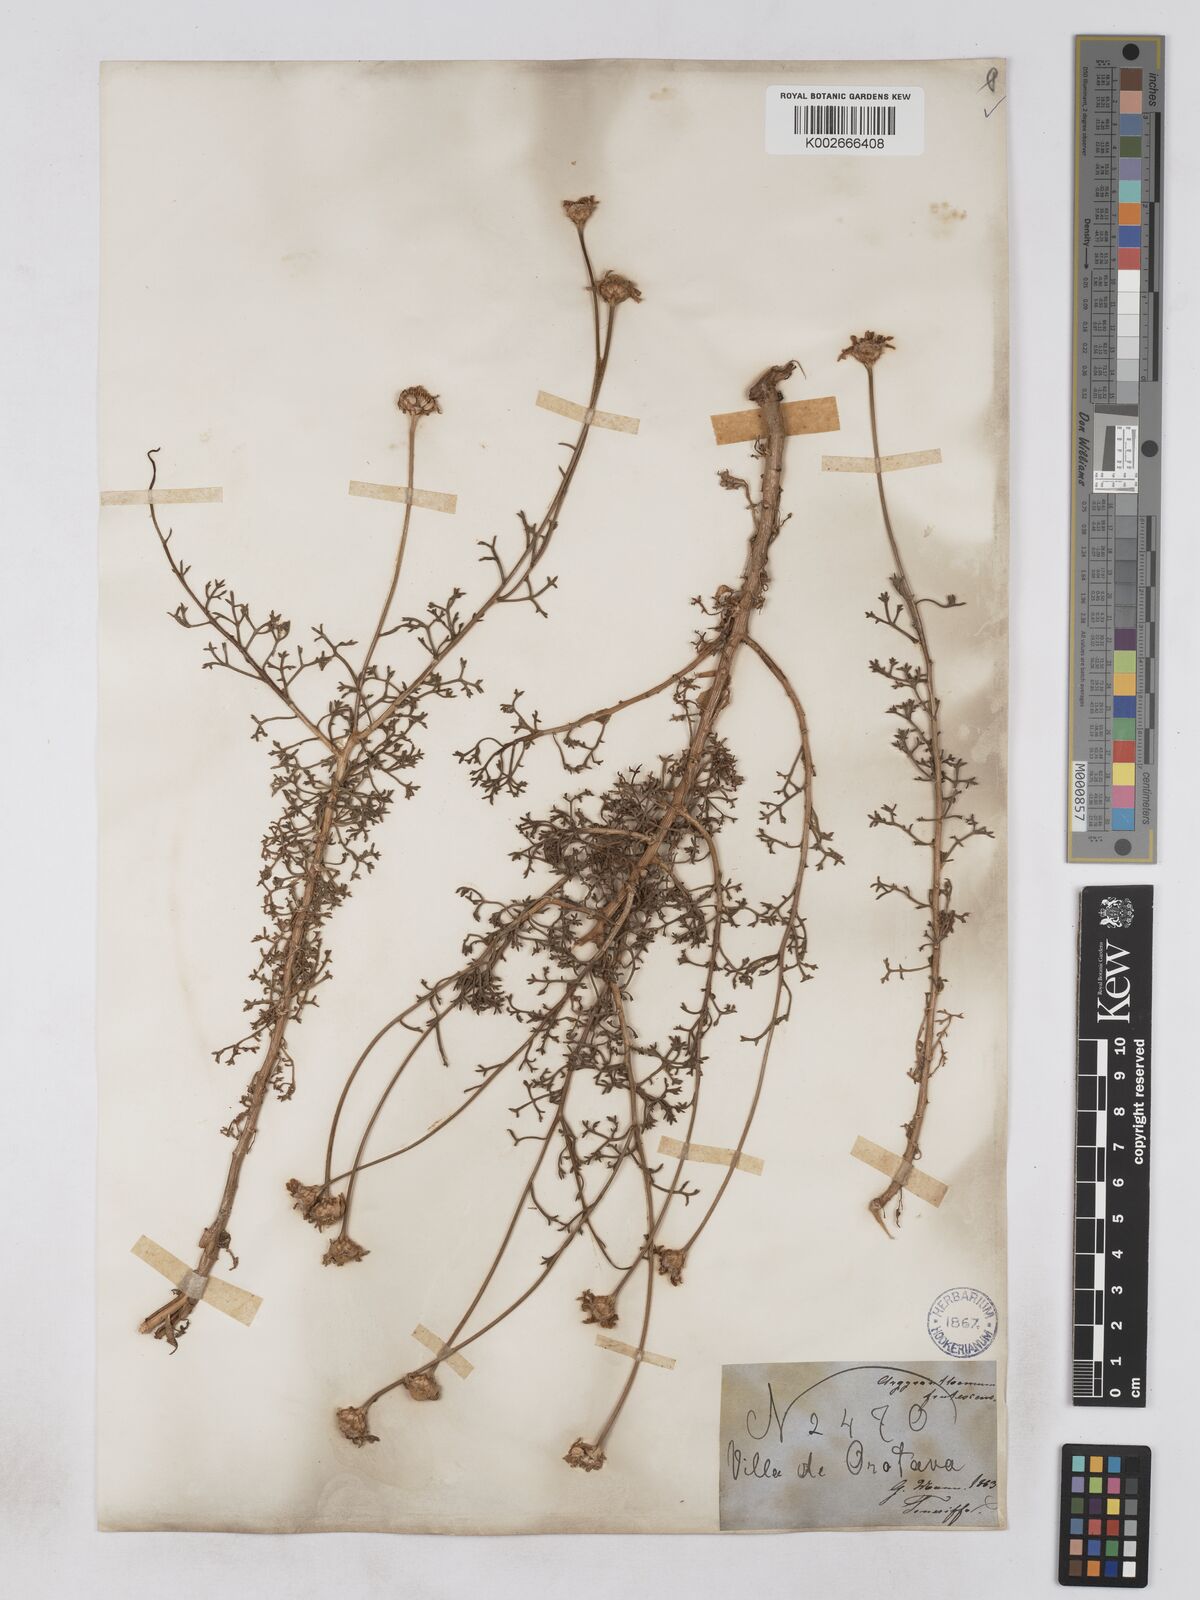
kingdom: Plantae
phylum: Tracheophyta
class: Magnoliopsida
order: Asterales
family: Asteraceae
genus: Argyranthemum
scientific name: Argyranthemum frutescens
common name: Paris daisy
